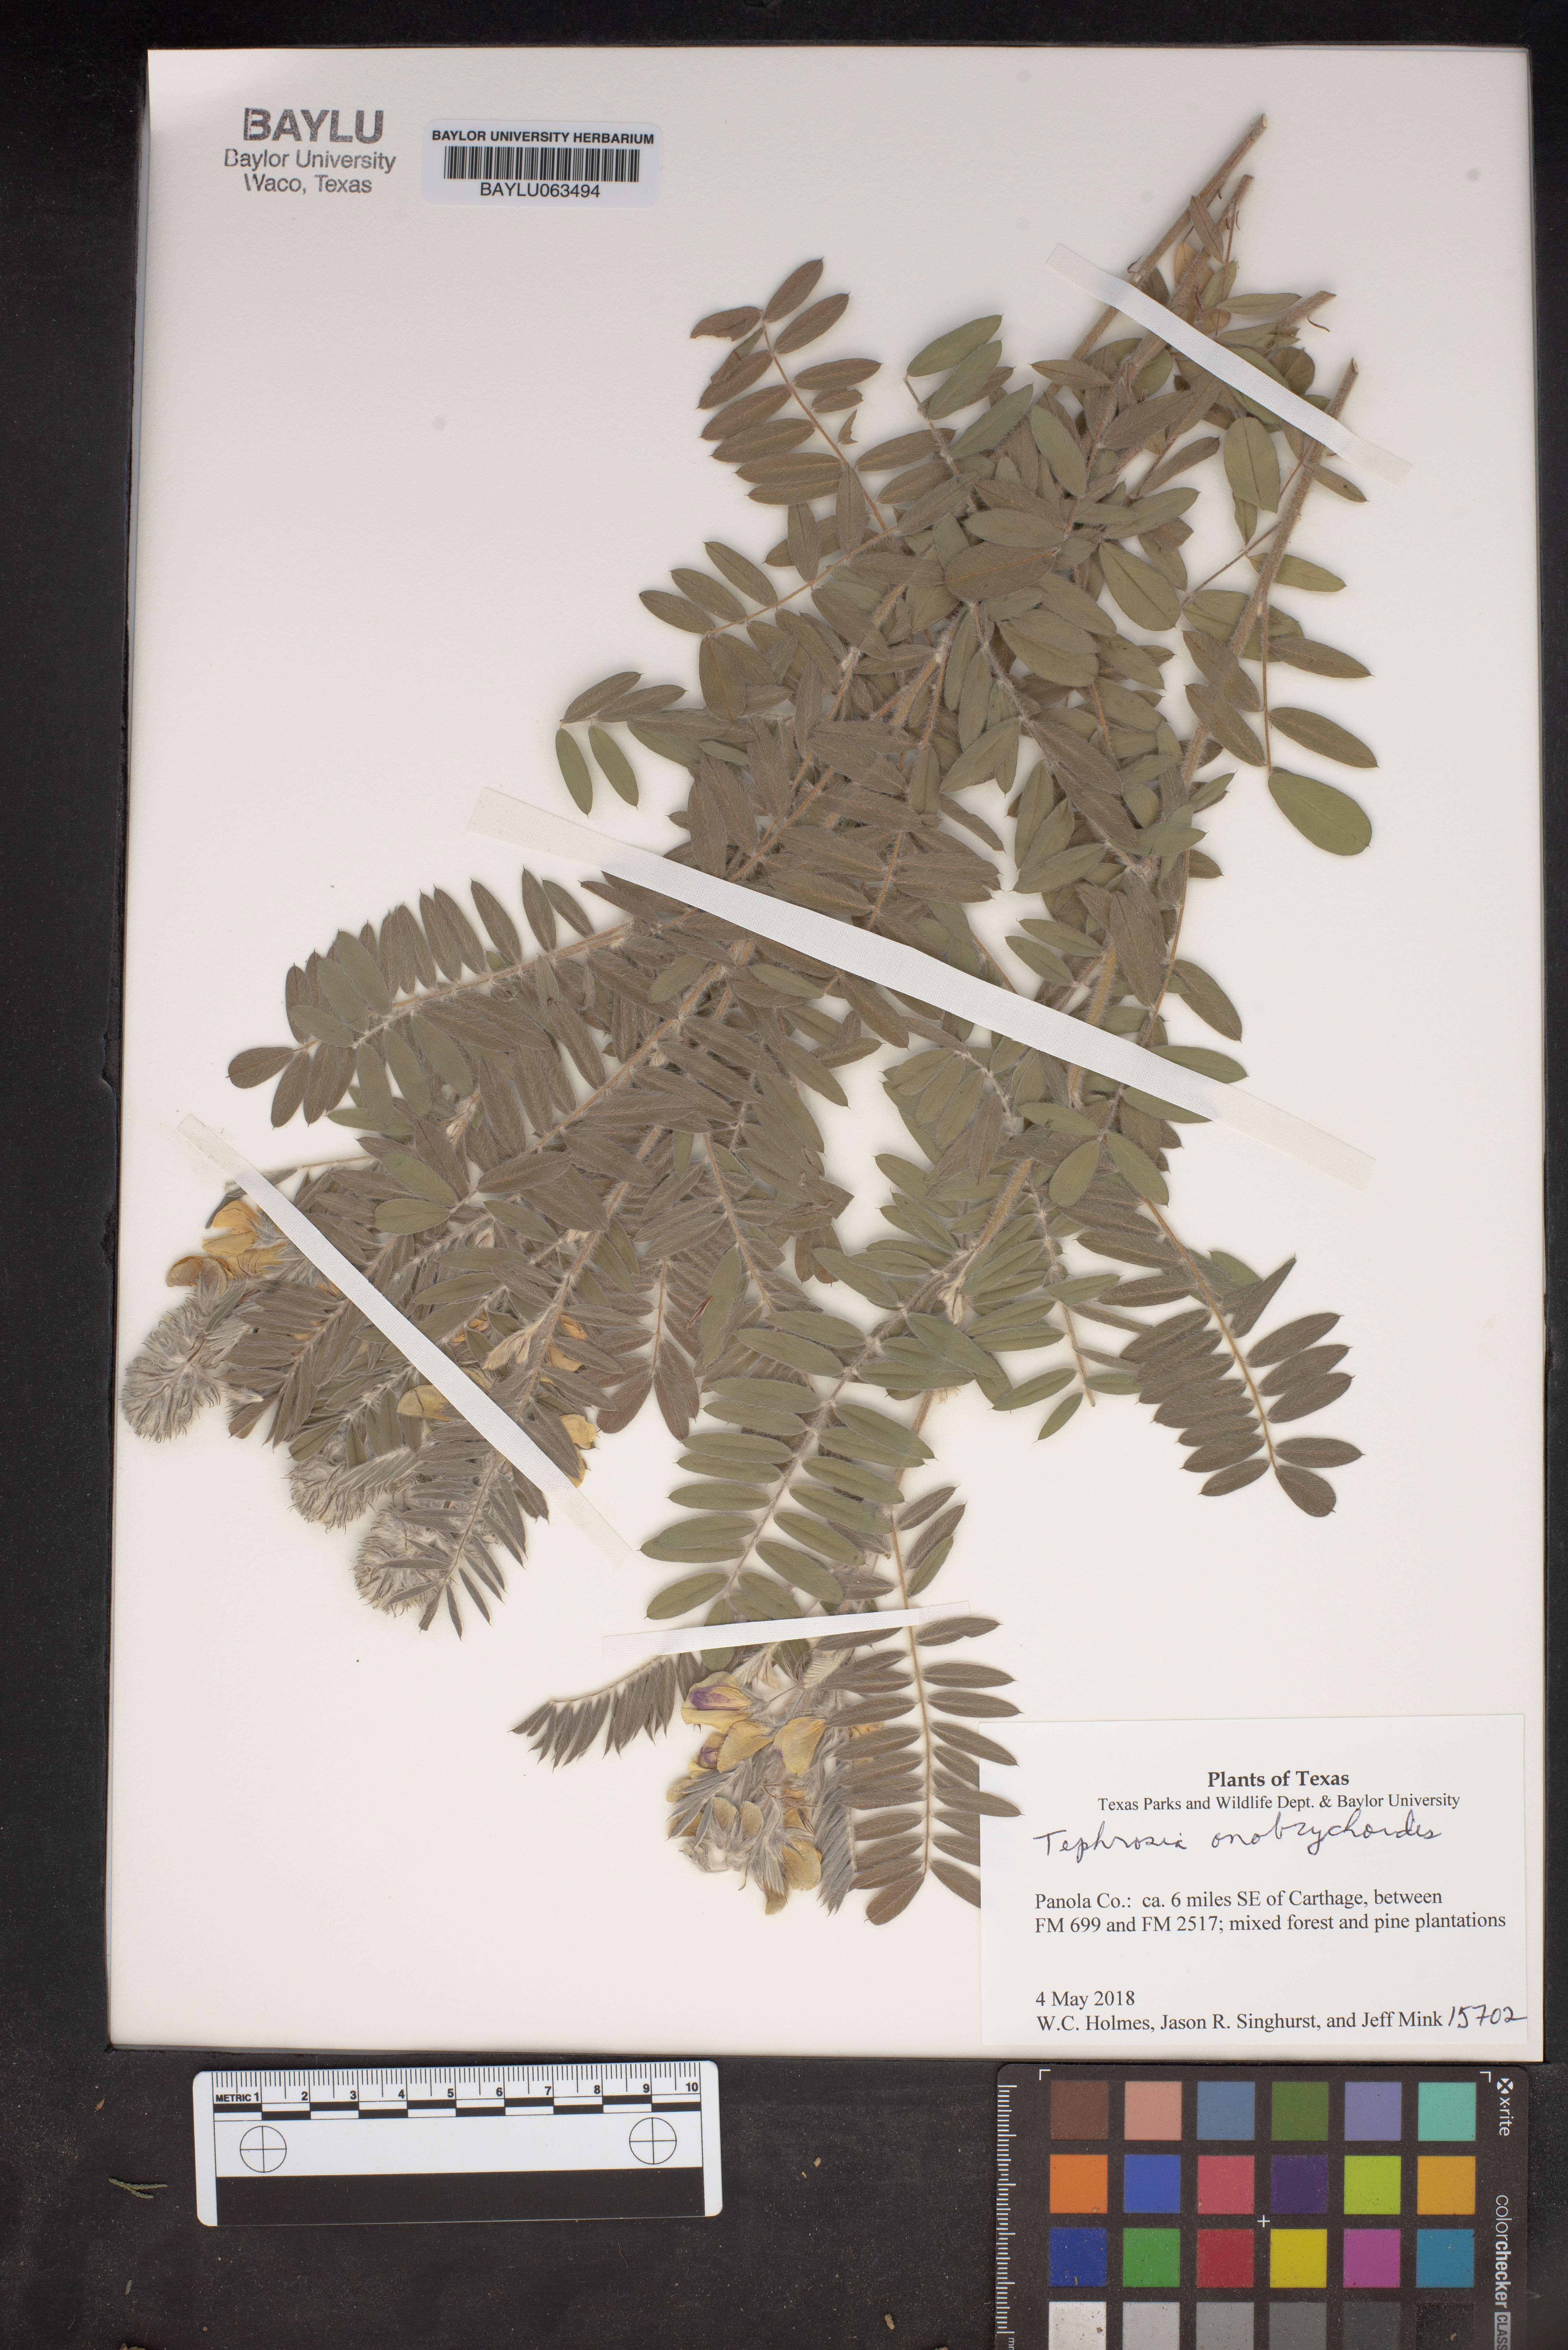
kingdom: Plantae
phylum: Tracheophyta
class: Magnoliopsida
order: Fabales
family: Fabaceae
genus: Tephrosia
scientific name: Tephrosia onobrychoides
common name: Multi-bloom hoary-pea
